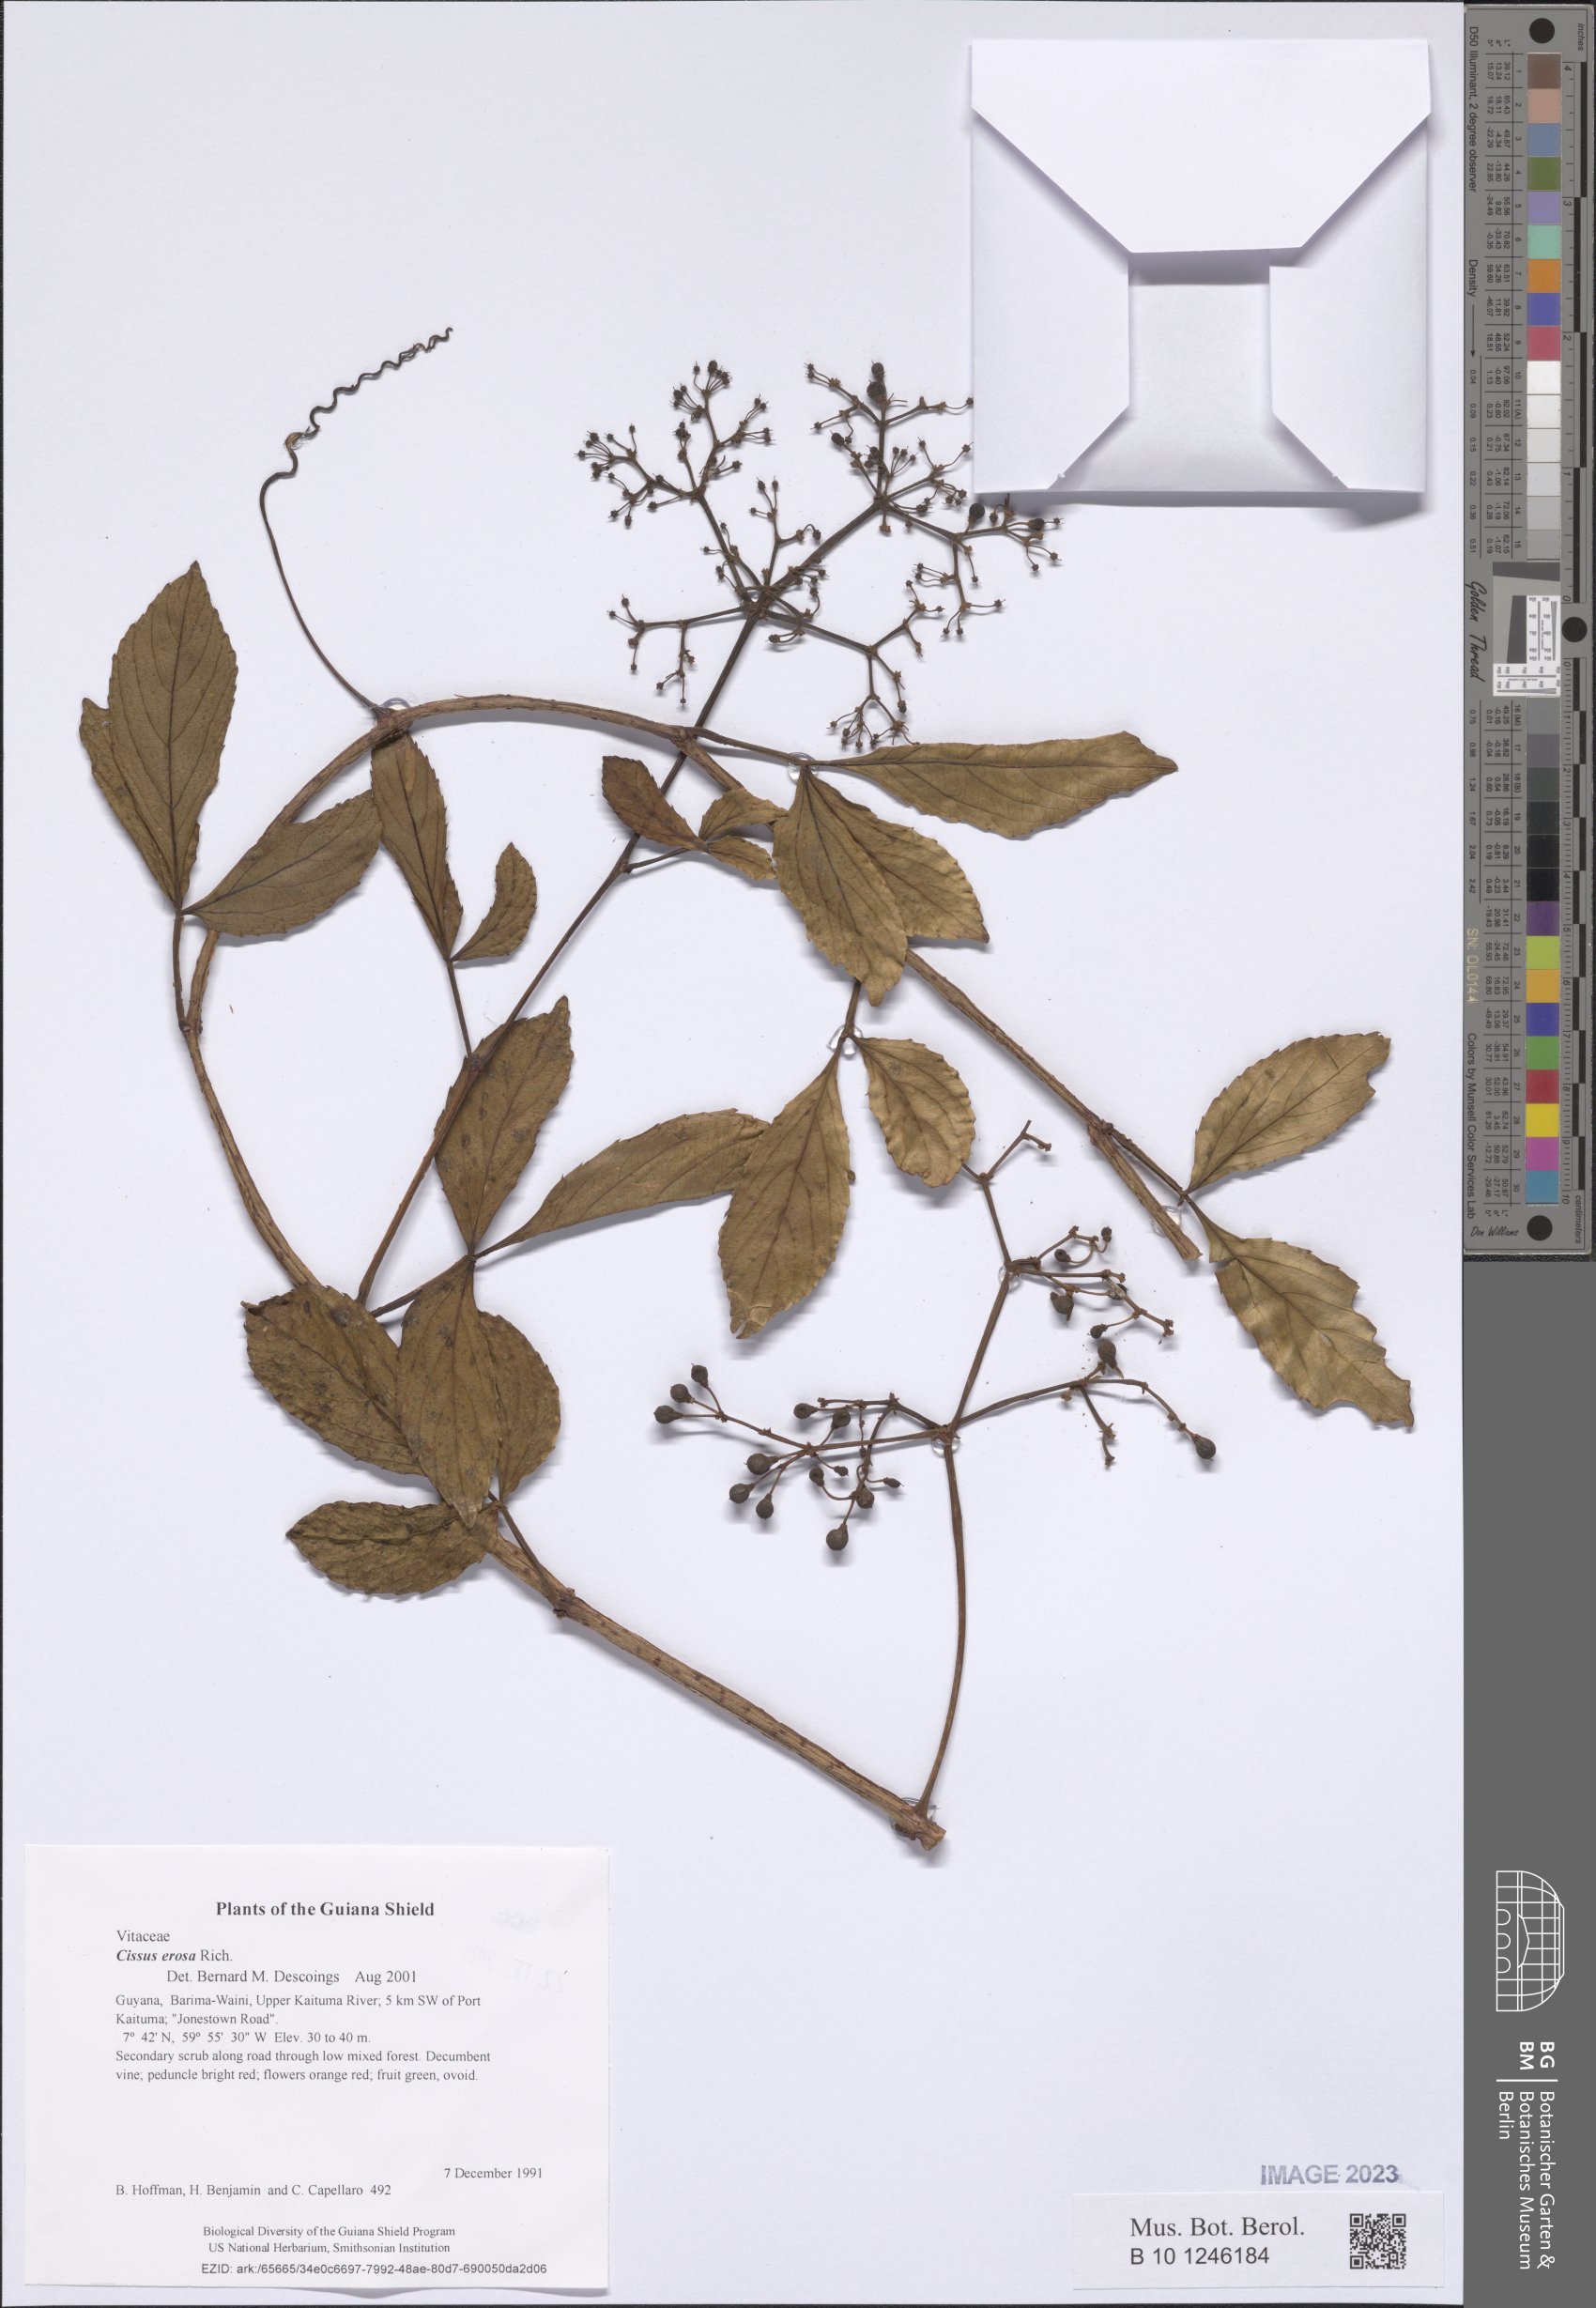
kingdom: Plantae
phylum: Tracheophyta
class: Magnoliopsida
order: Vitales
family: Vitaceae
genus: Cissus
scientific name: Cissus erosa
